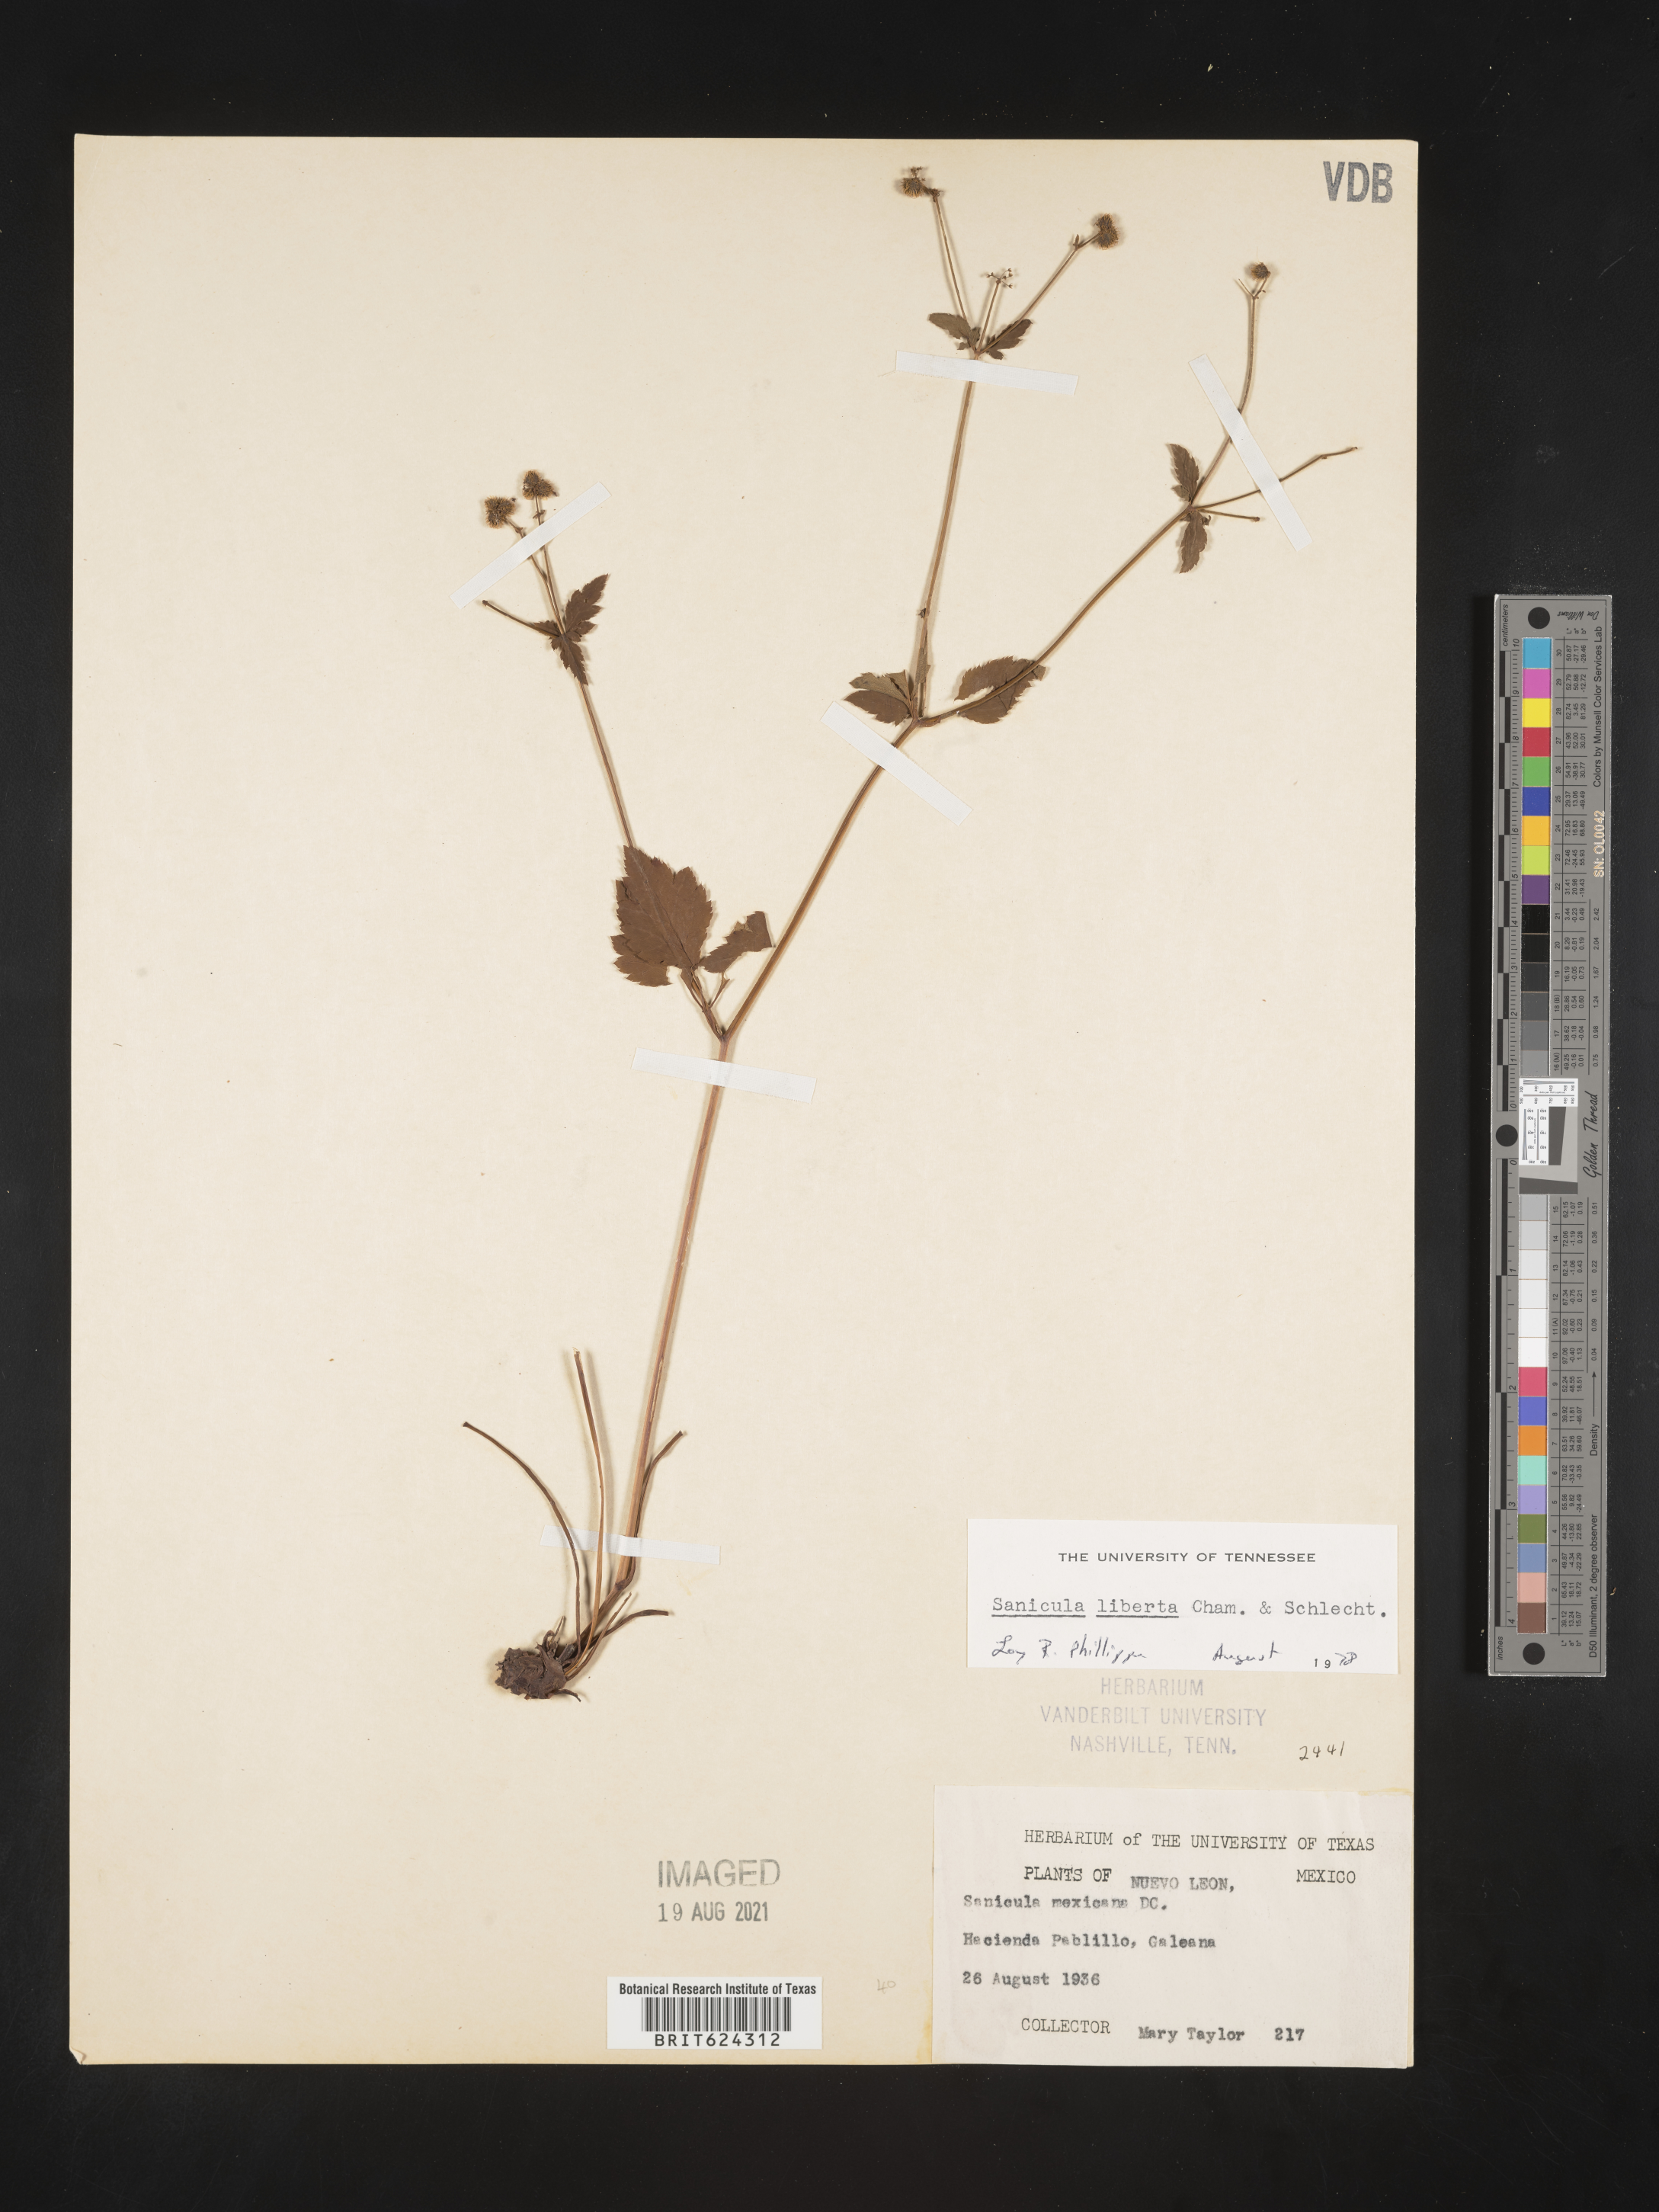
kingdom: Plantae
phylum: Tracheophyta
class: Magnoliopsida
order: Apiales
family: Apiaceae
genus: Sanicula
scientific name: Sanicula
